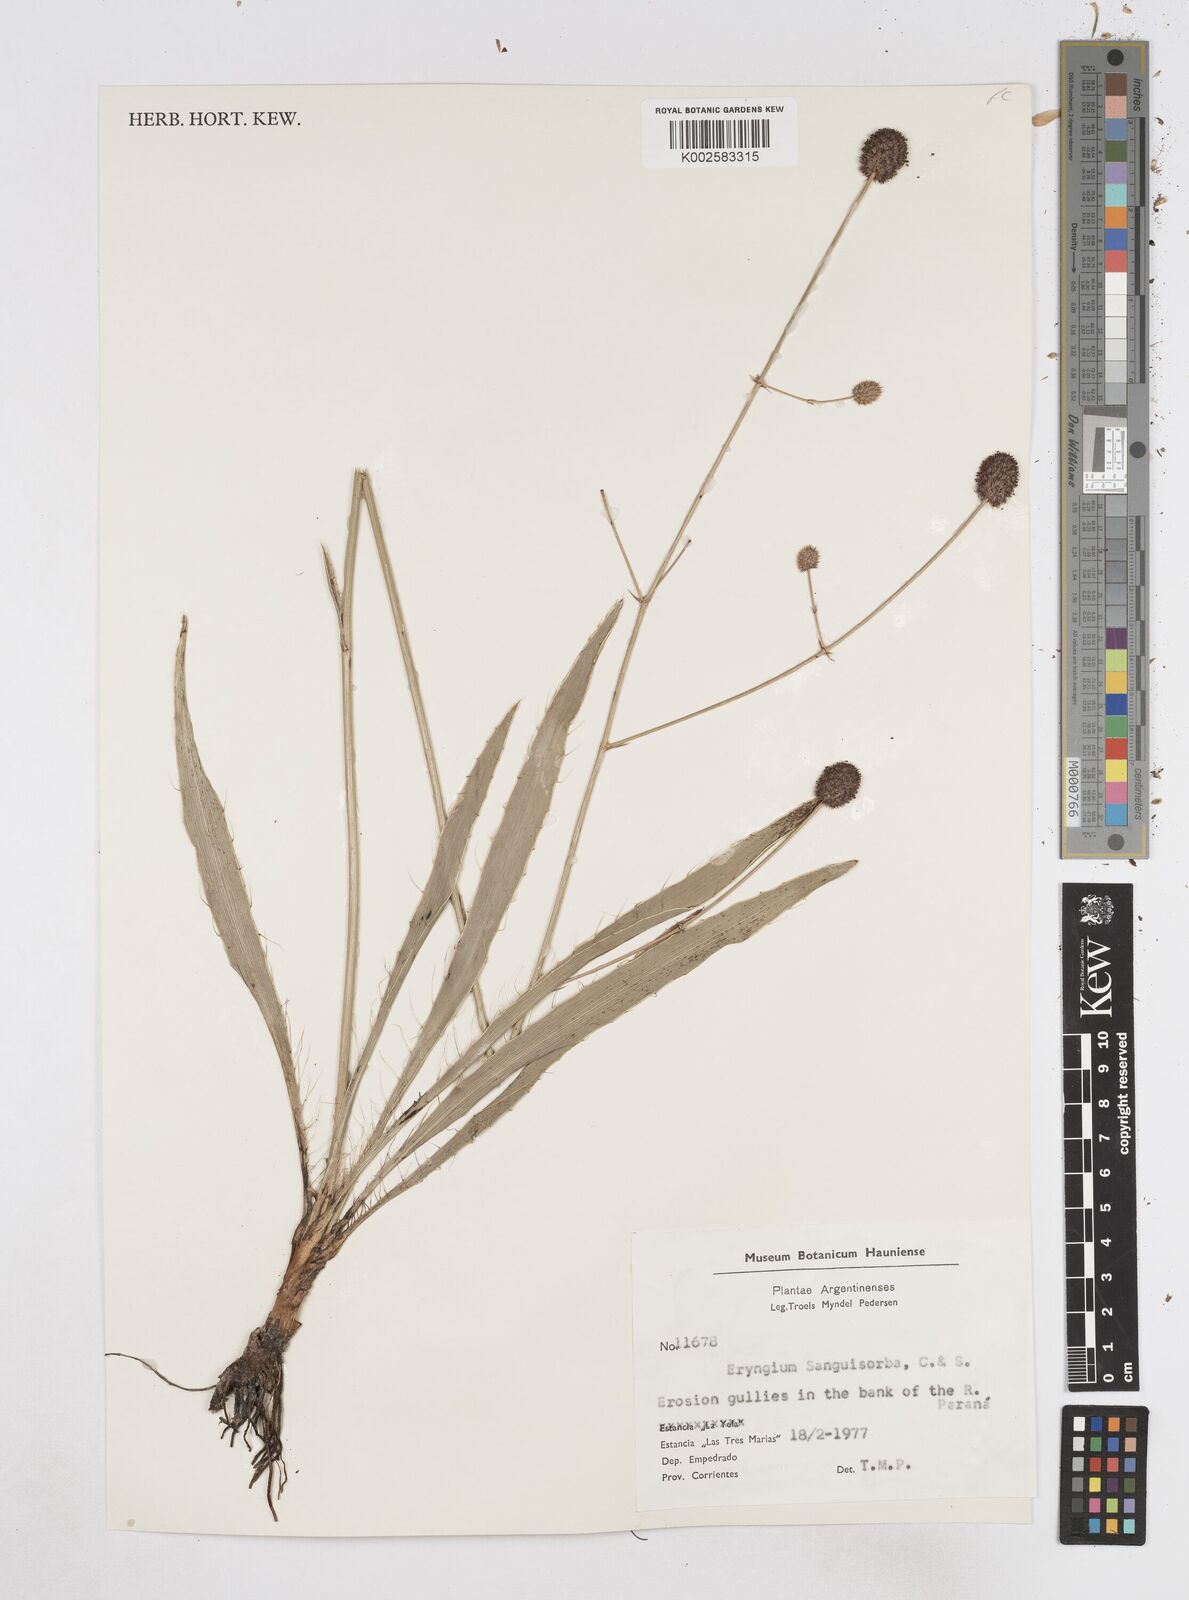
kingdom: Plantae
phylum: Tracheophyta
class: Magnoliopsida
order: Apiales
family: Apiaceae
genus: Eryngium
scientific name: Eryngium sanguisorba
